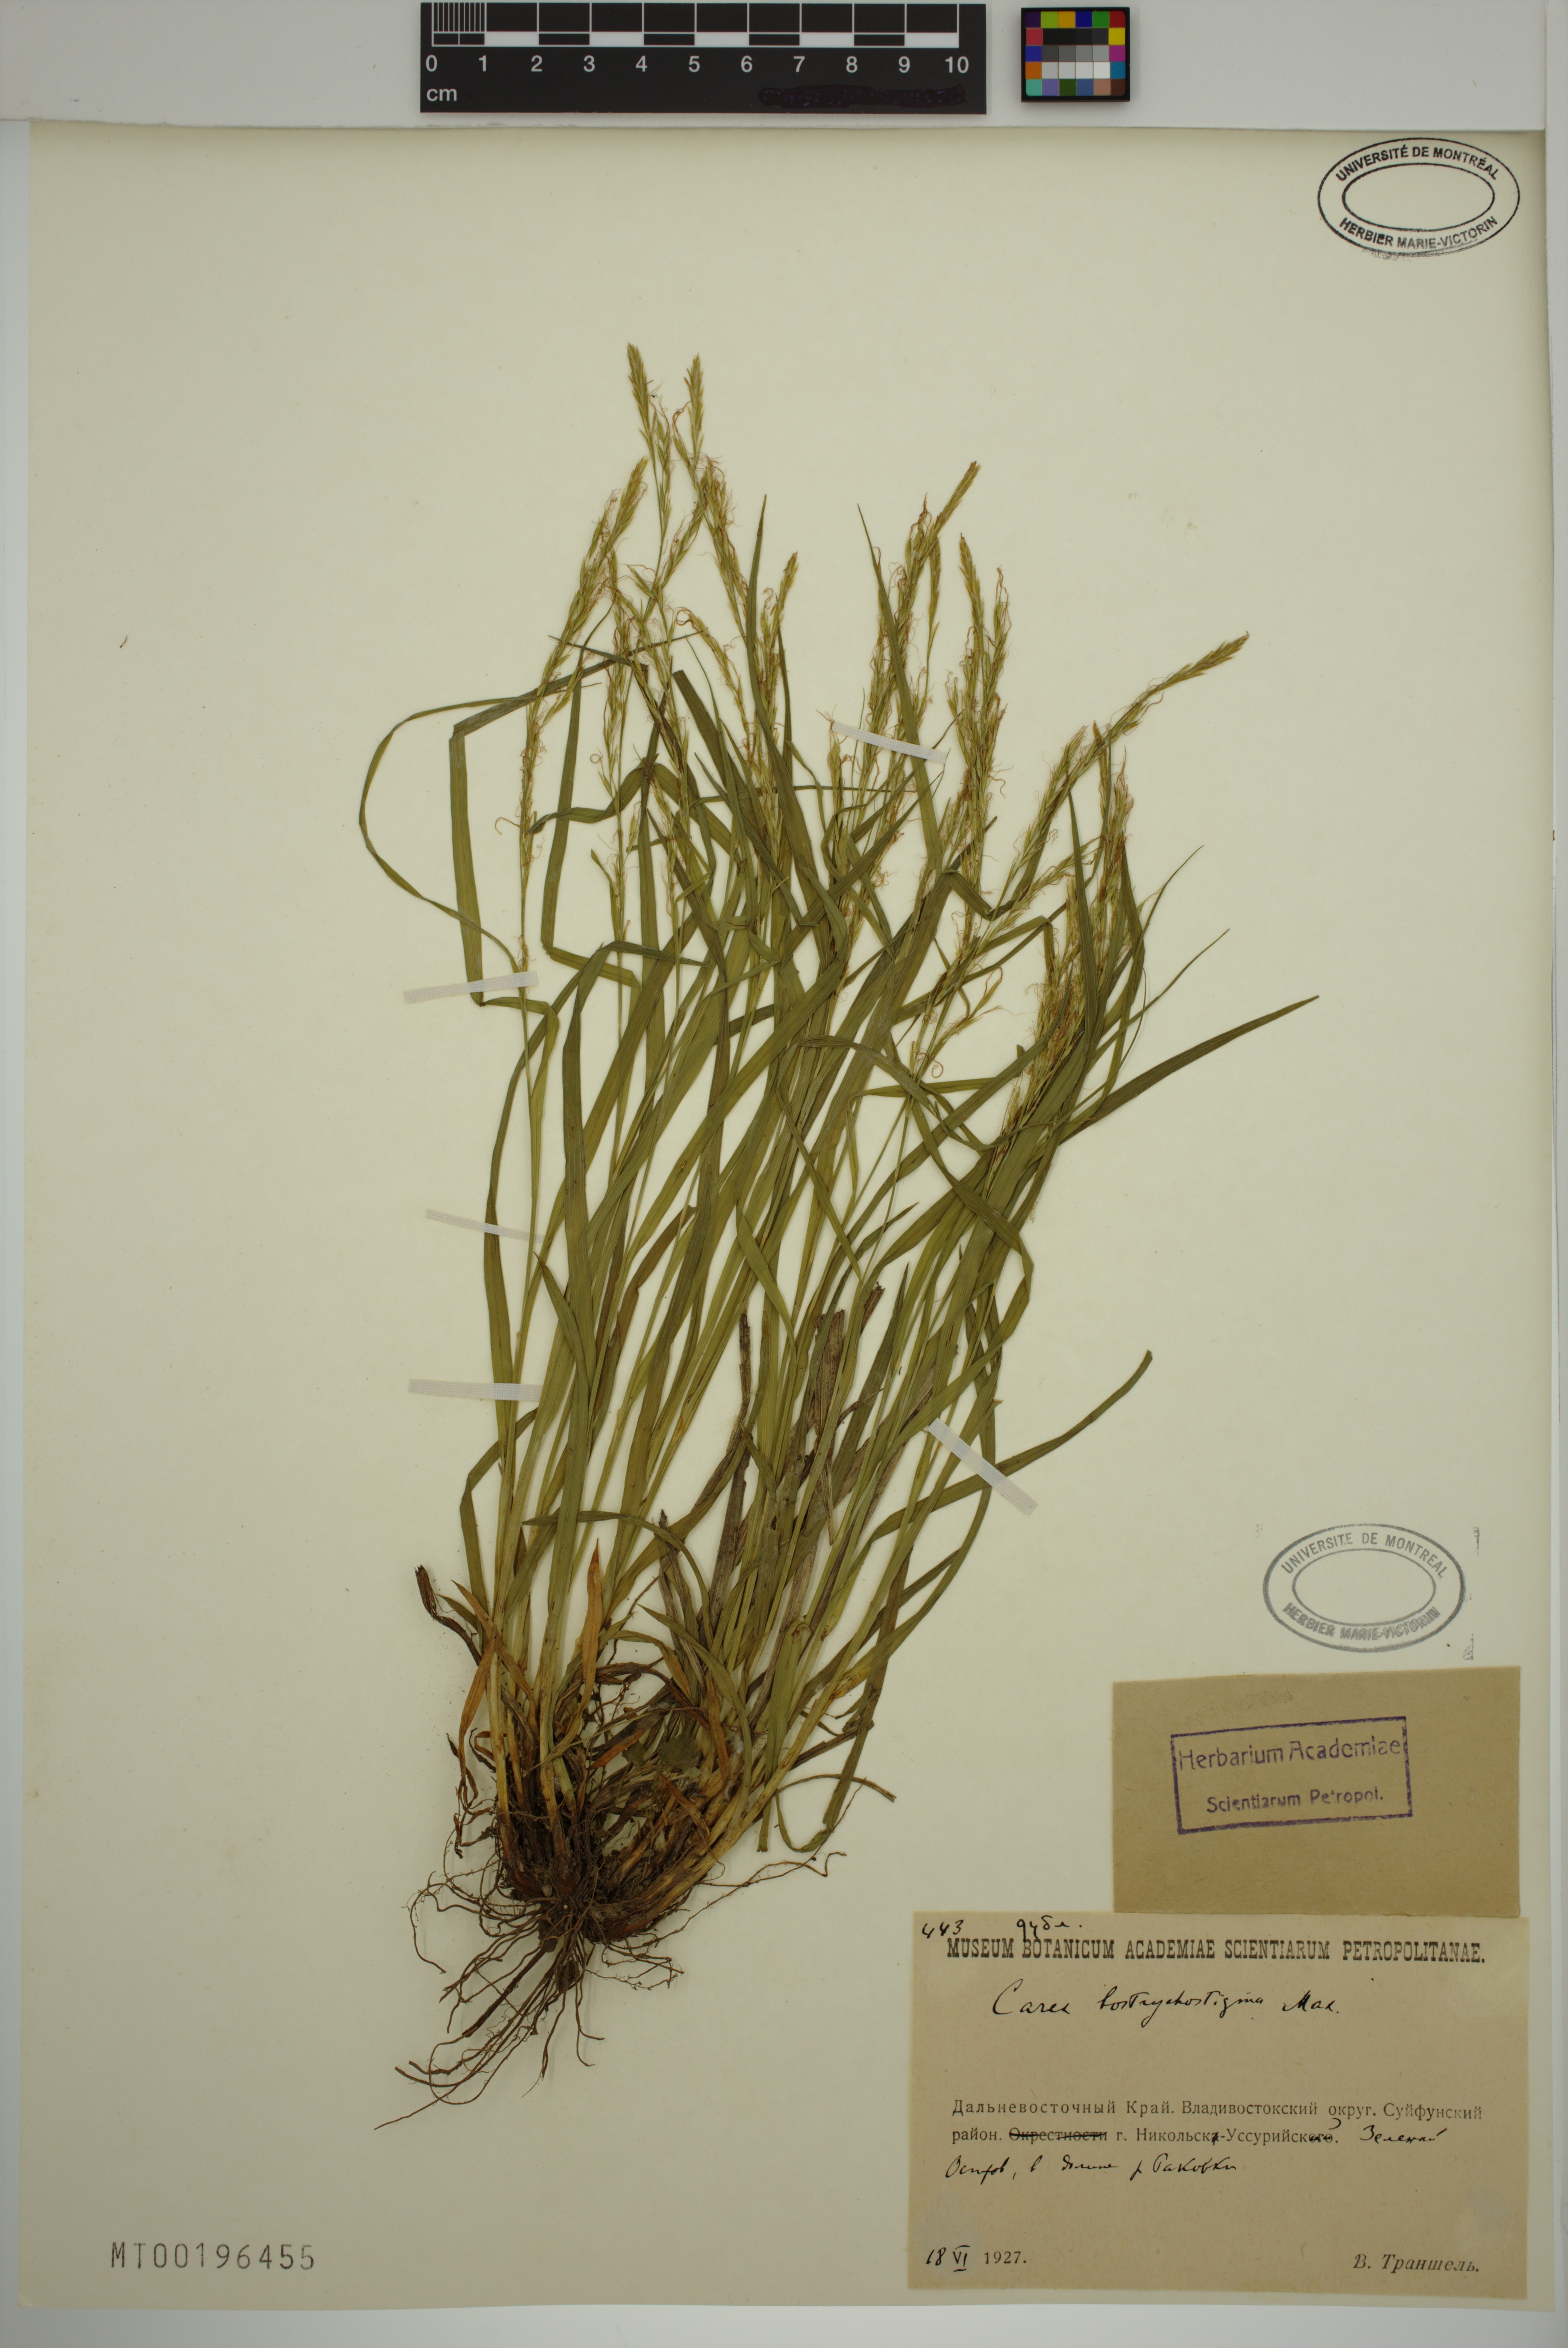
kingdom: Plantae
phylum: Tracheophyta
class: Liliopsida
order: Poales
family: Cyperaceae
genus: Carex
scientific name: Carex bostrychostigma
